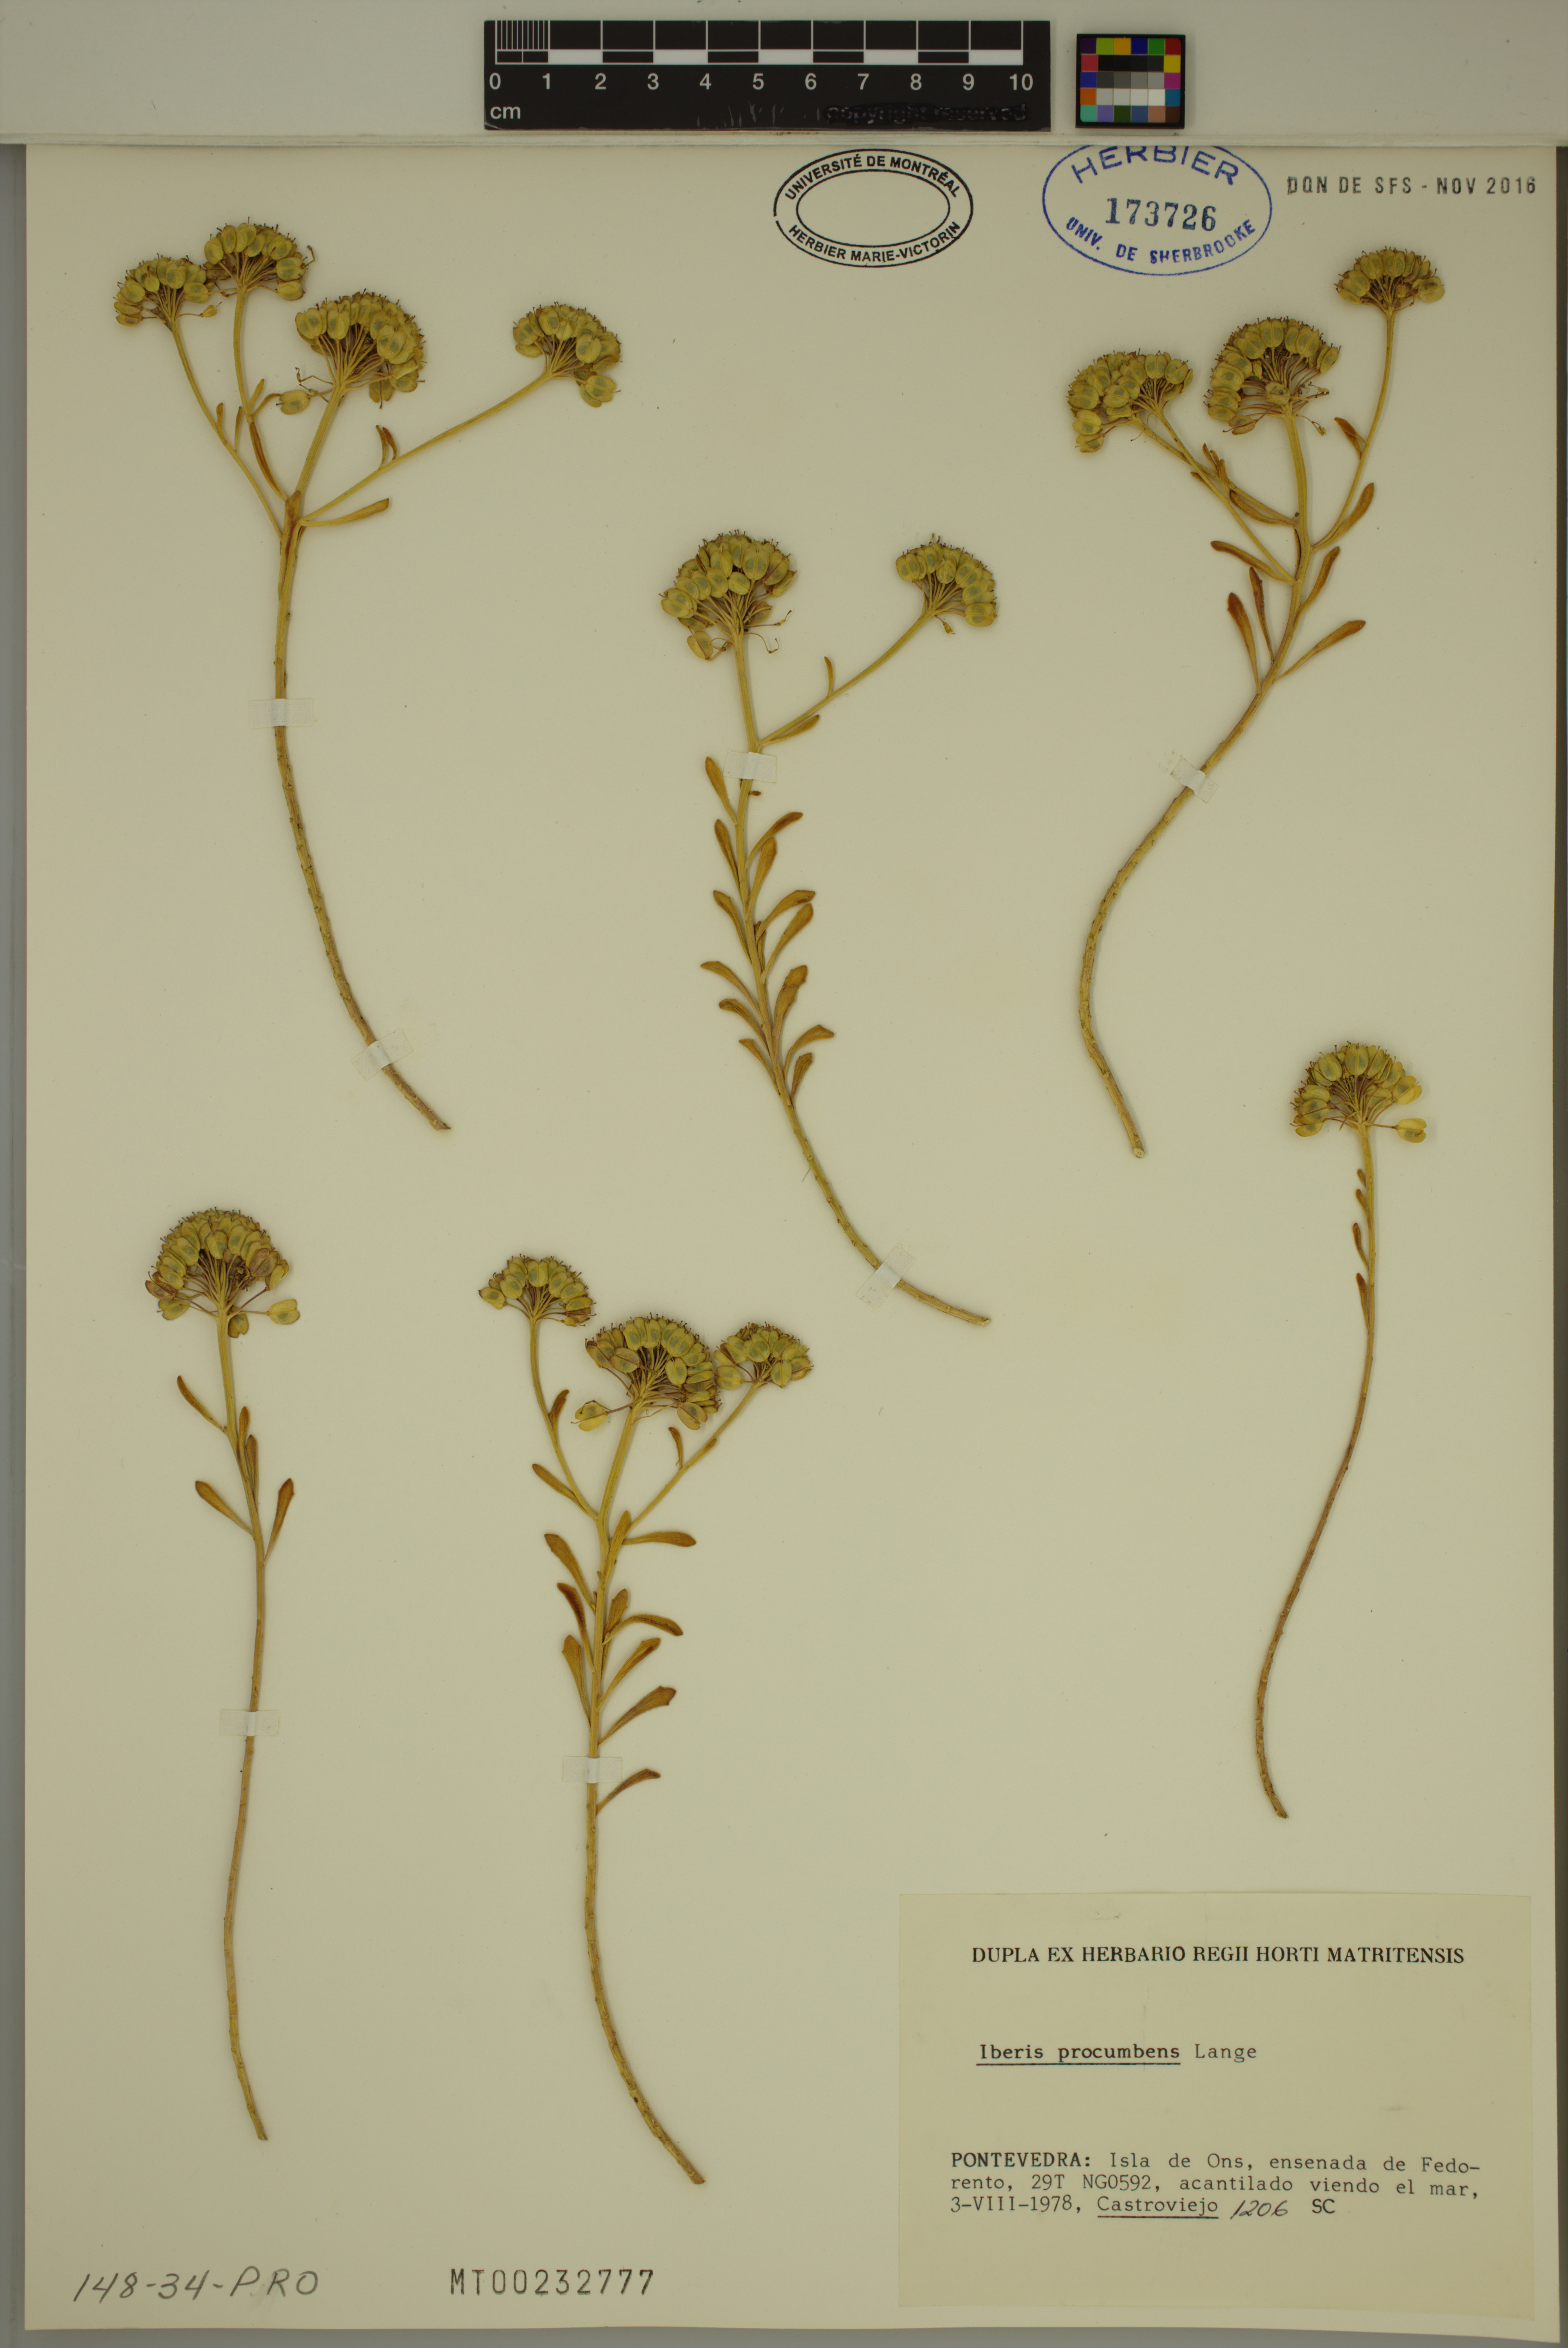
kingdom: Plantae
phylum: Tracheophyta
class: Magnoliopsida
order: Brassicales
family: Brassicaceae
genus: Iberis
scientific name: Iberis procumbens
